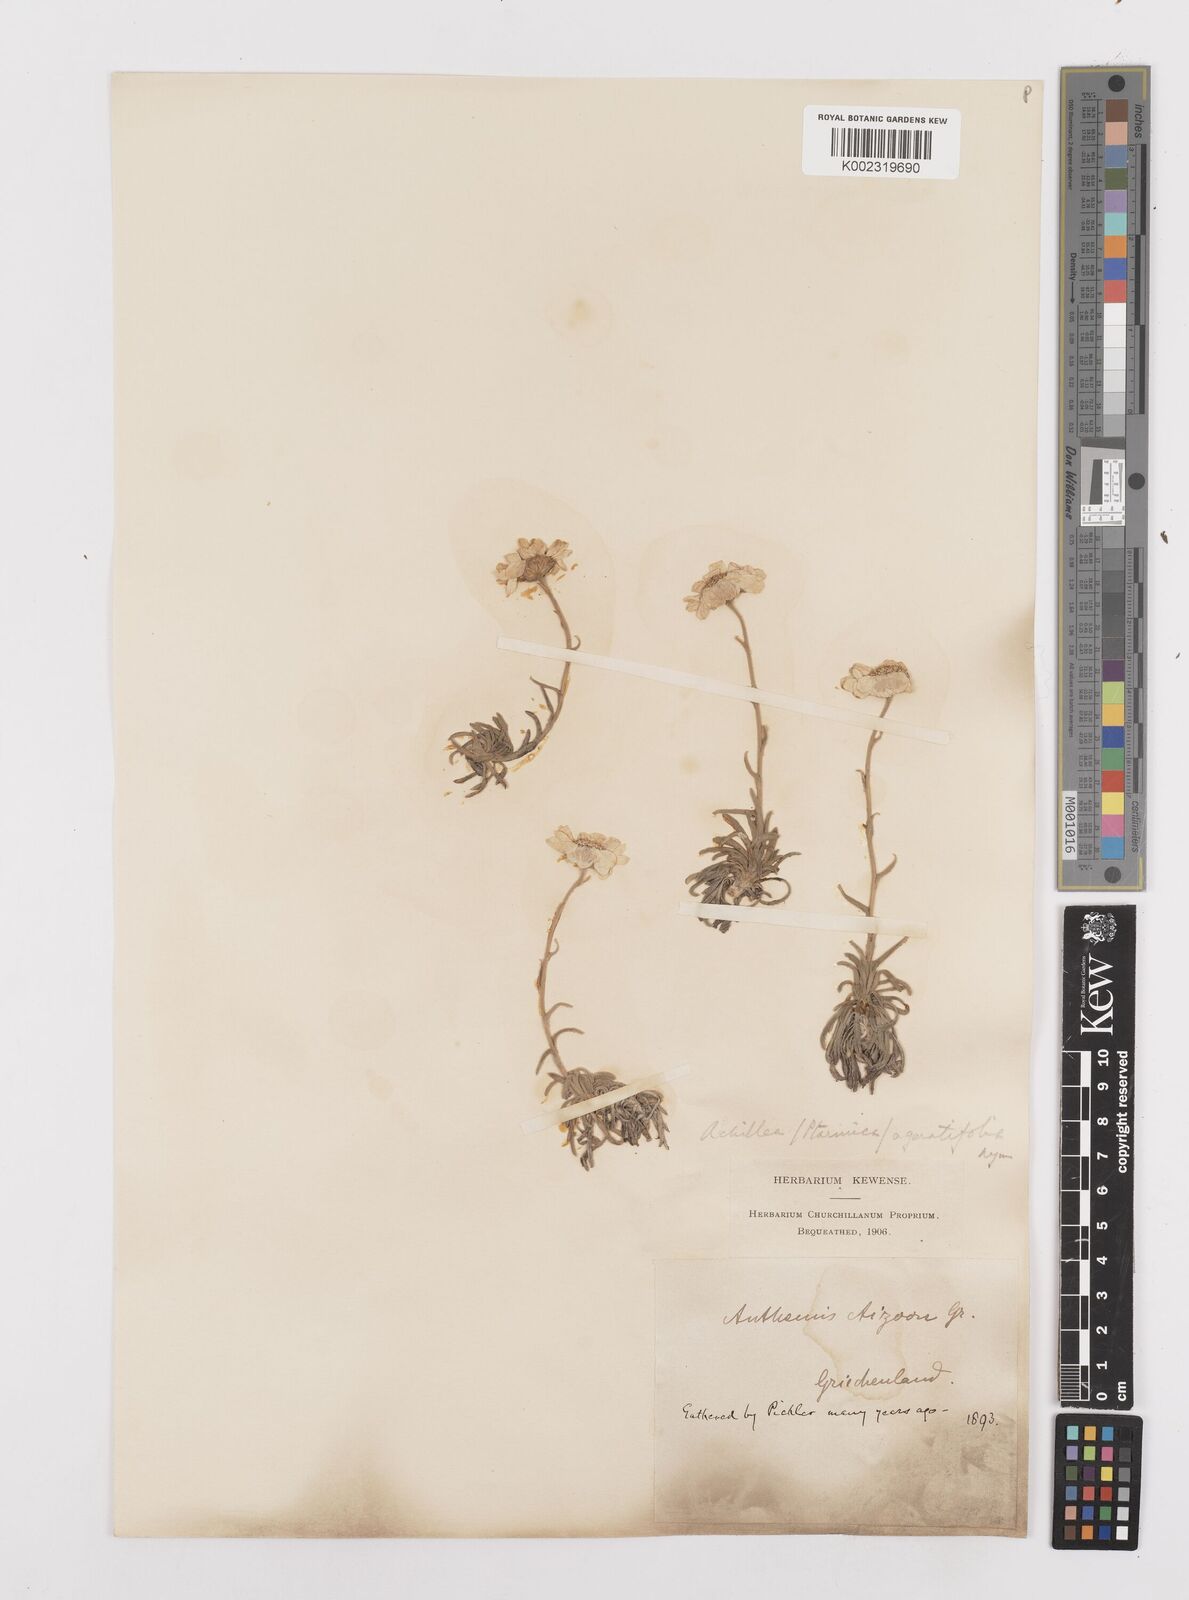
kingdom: Plantae
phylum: Tracheophyta
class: Magnoliopsida
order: Asterales
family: Asteraceae
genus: Achillea
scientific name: Achillea ageratifolia
